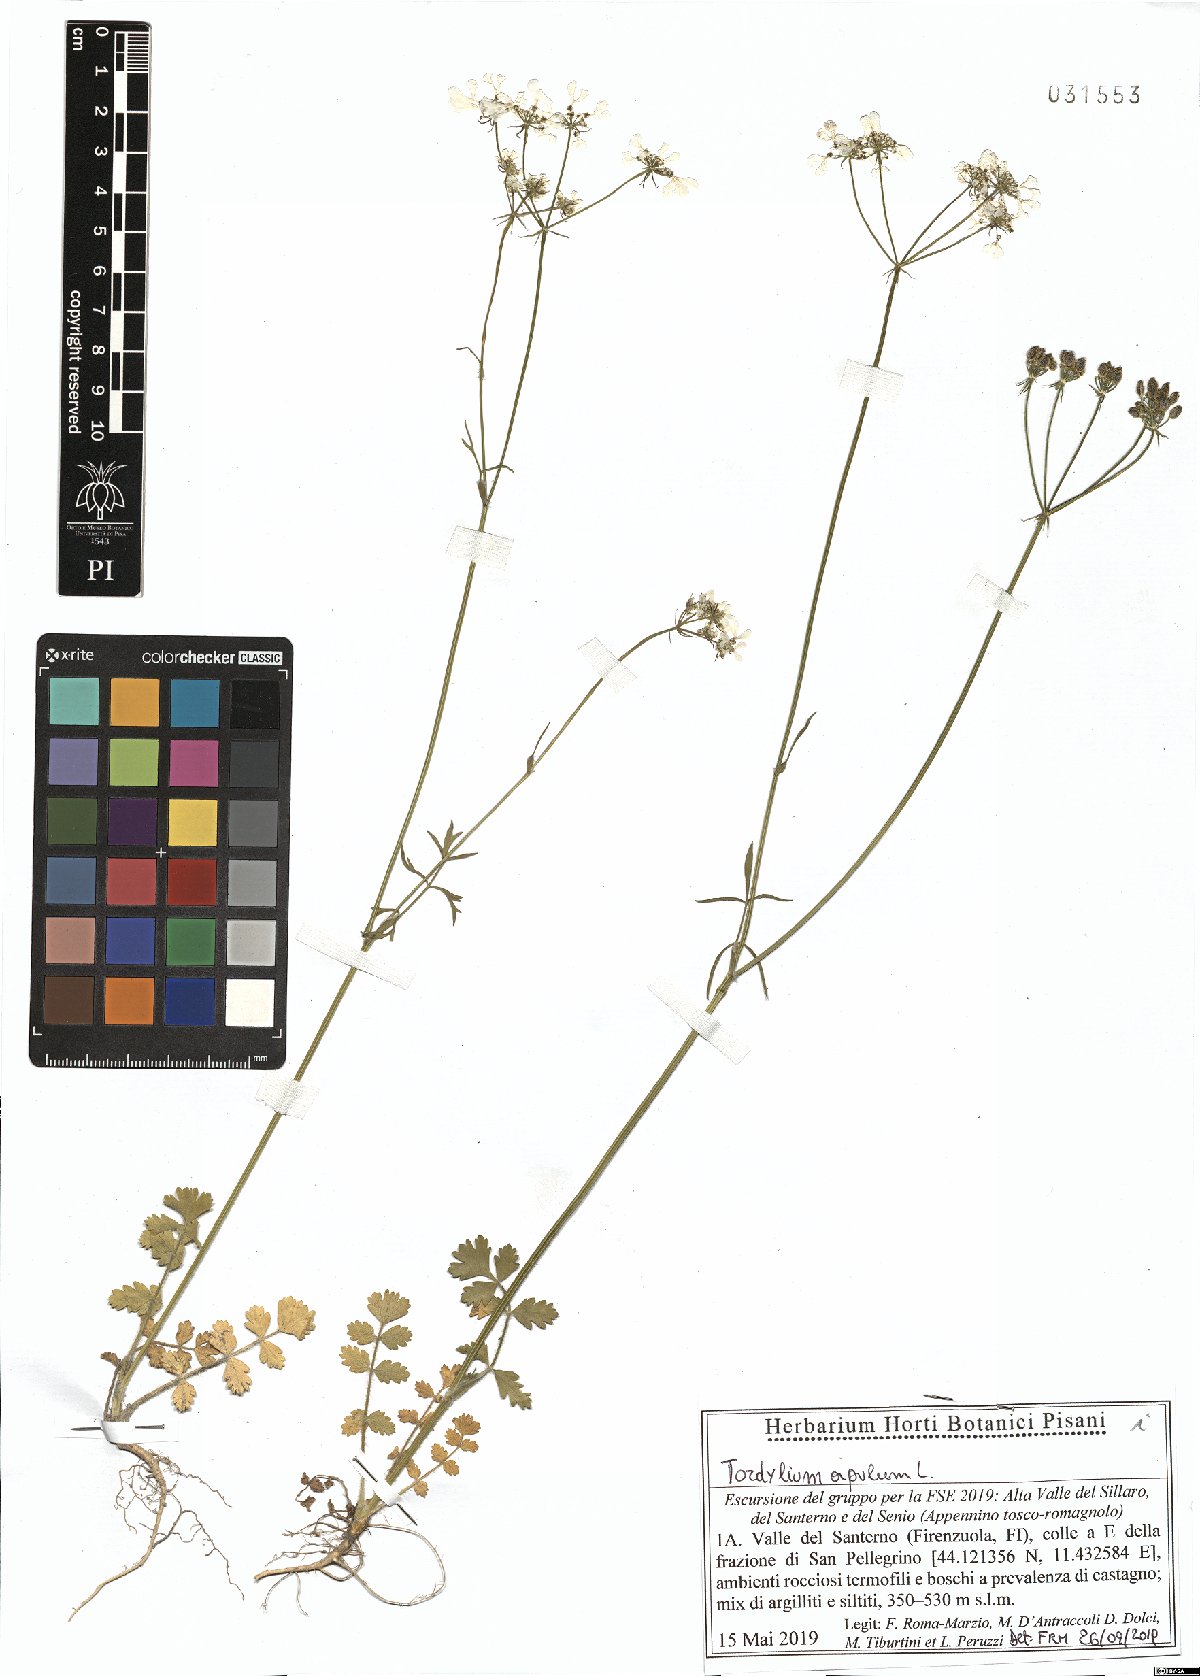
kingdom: Plantae
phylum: Tracheophyta
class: Magnoliopsida
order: Apiales
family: Apiaceae
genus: Tordylium
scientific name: Tordylium apulum
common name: Mediterranean hartwort
